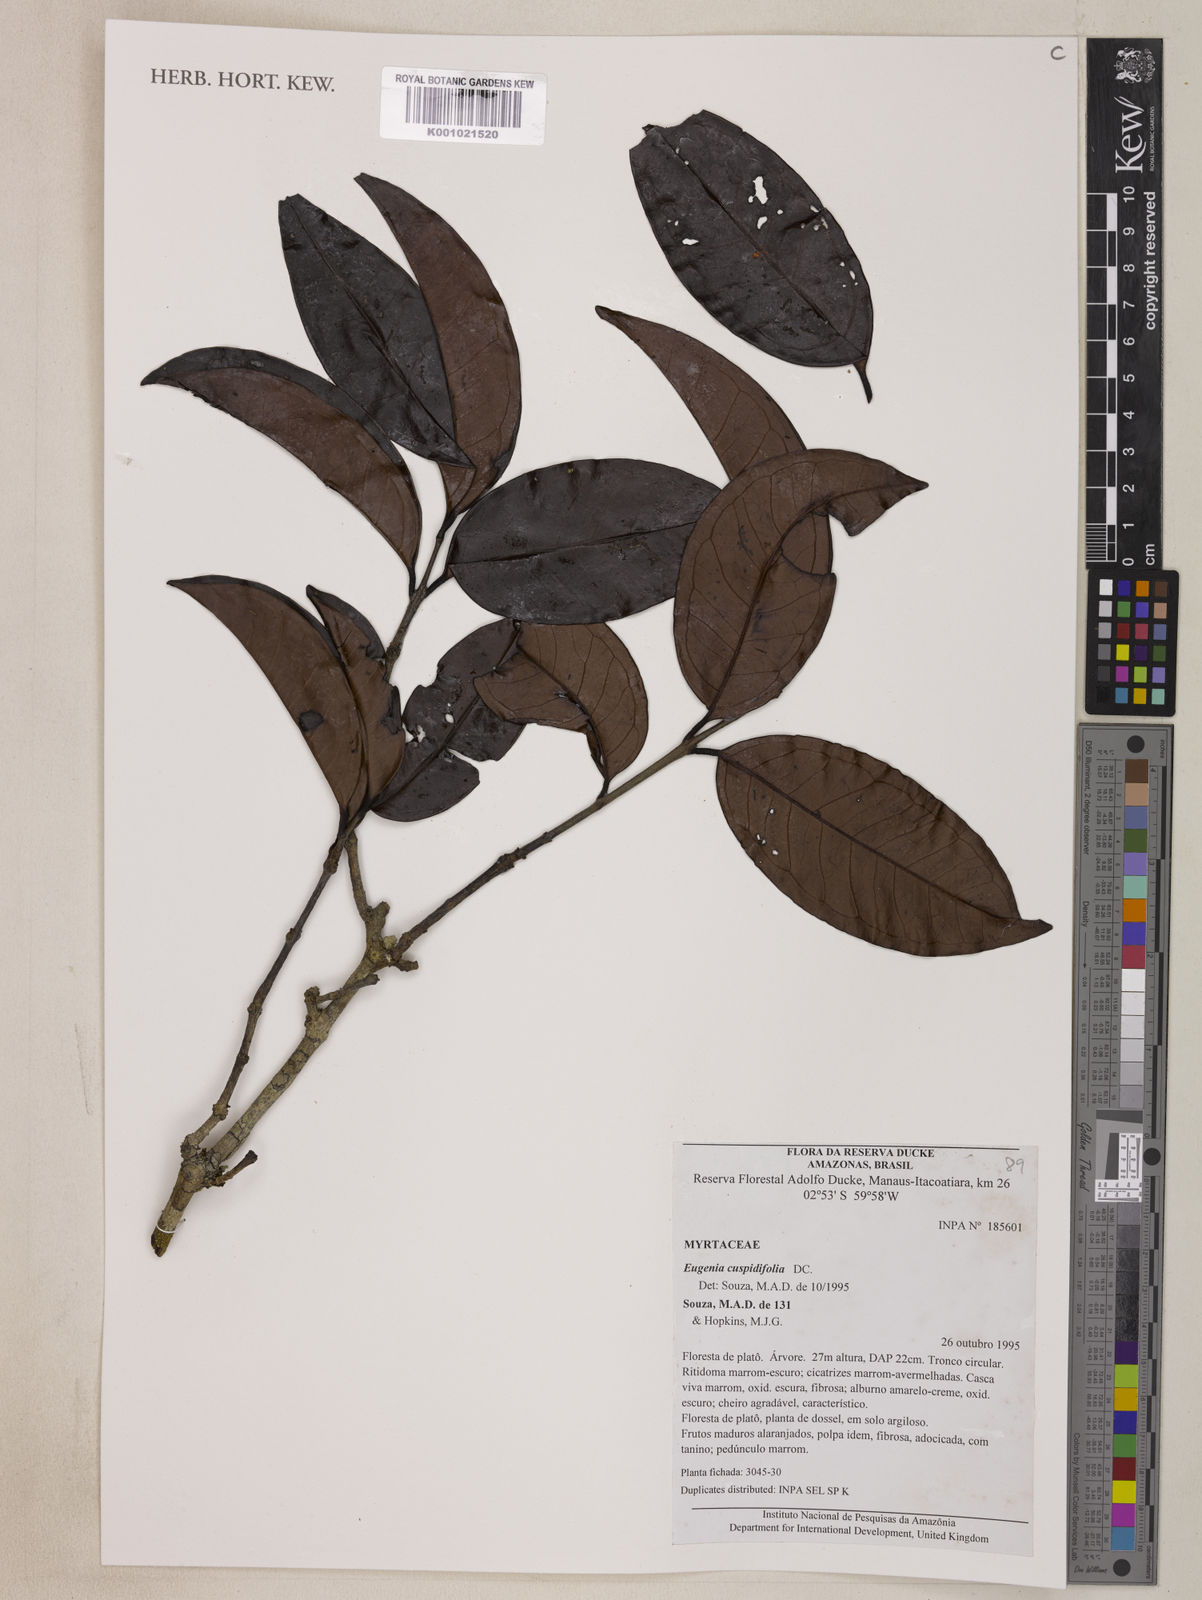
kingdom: Plantae
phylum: Tracheophyta
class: Magnoliopsida
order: Myrtales
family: Myrtaceae
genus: Eugenia
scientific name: Eugenia cuspidifolia
